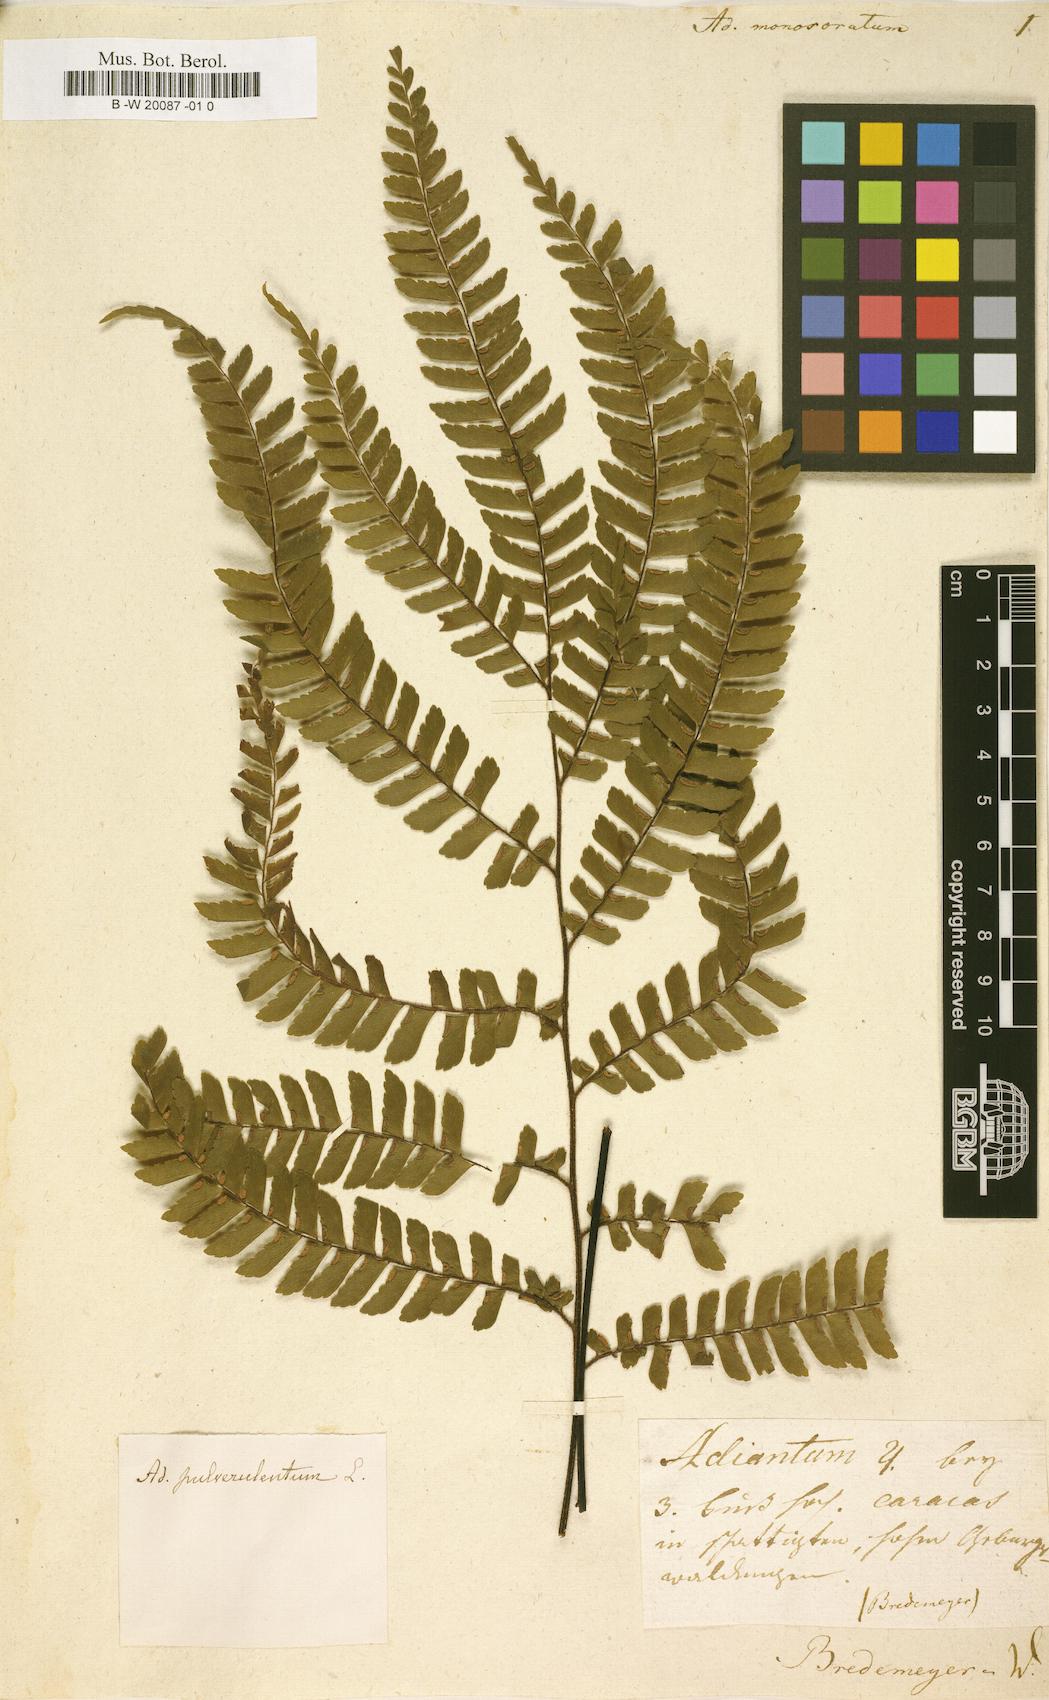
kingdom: Plantae
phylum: Tracheophyta
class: Polypodiopsida
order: Polypodiales
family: Pteridaceae
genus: Adiantum
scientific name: Adiantum pulverulentum
